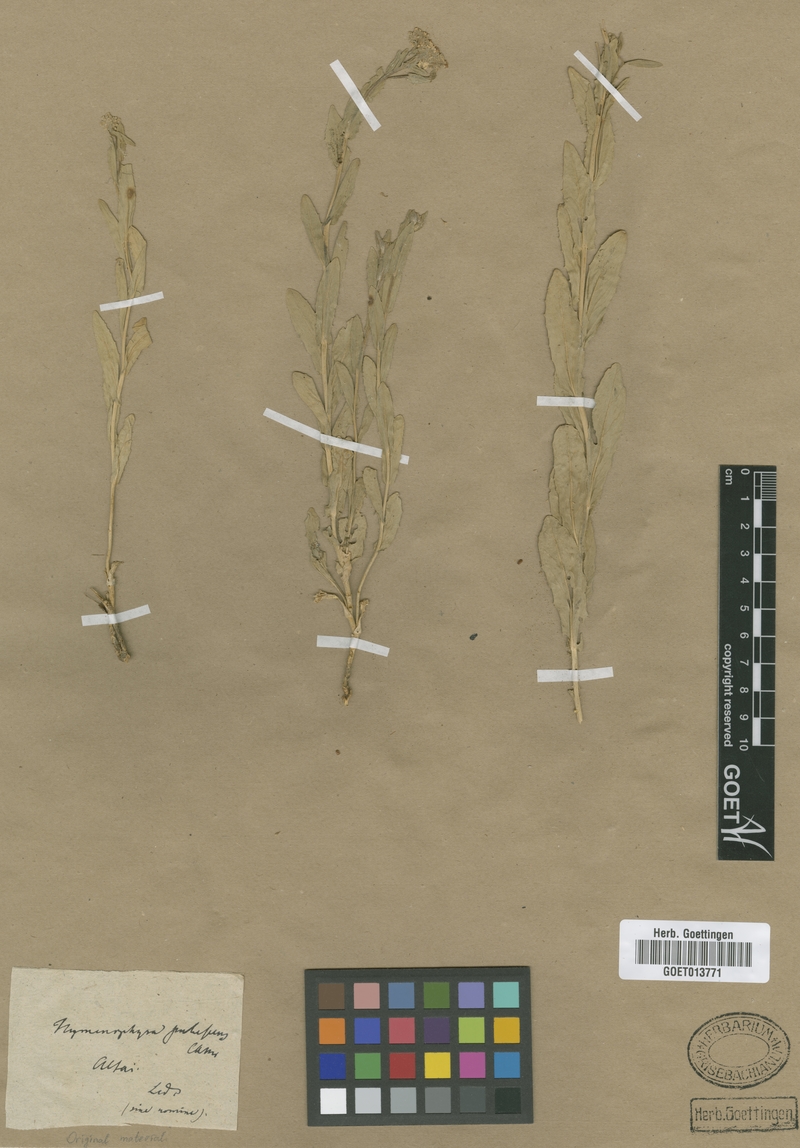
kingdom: Plantae
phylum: Tracheophyta
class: Magnoliopsida
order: Brassicales
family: Brassicaceae
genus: Lepidium
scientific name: Lepidium appelianum
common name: Hairy whitetop
